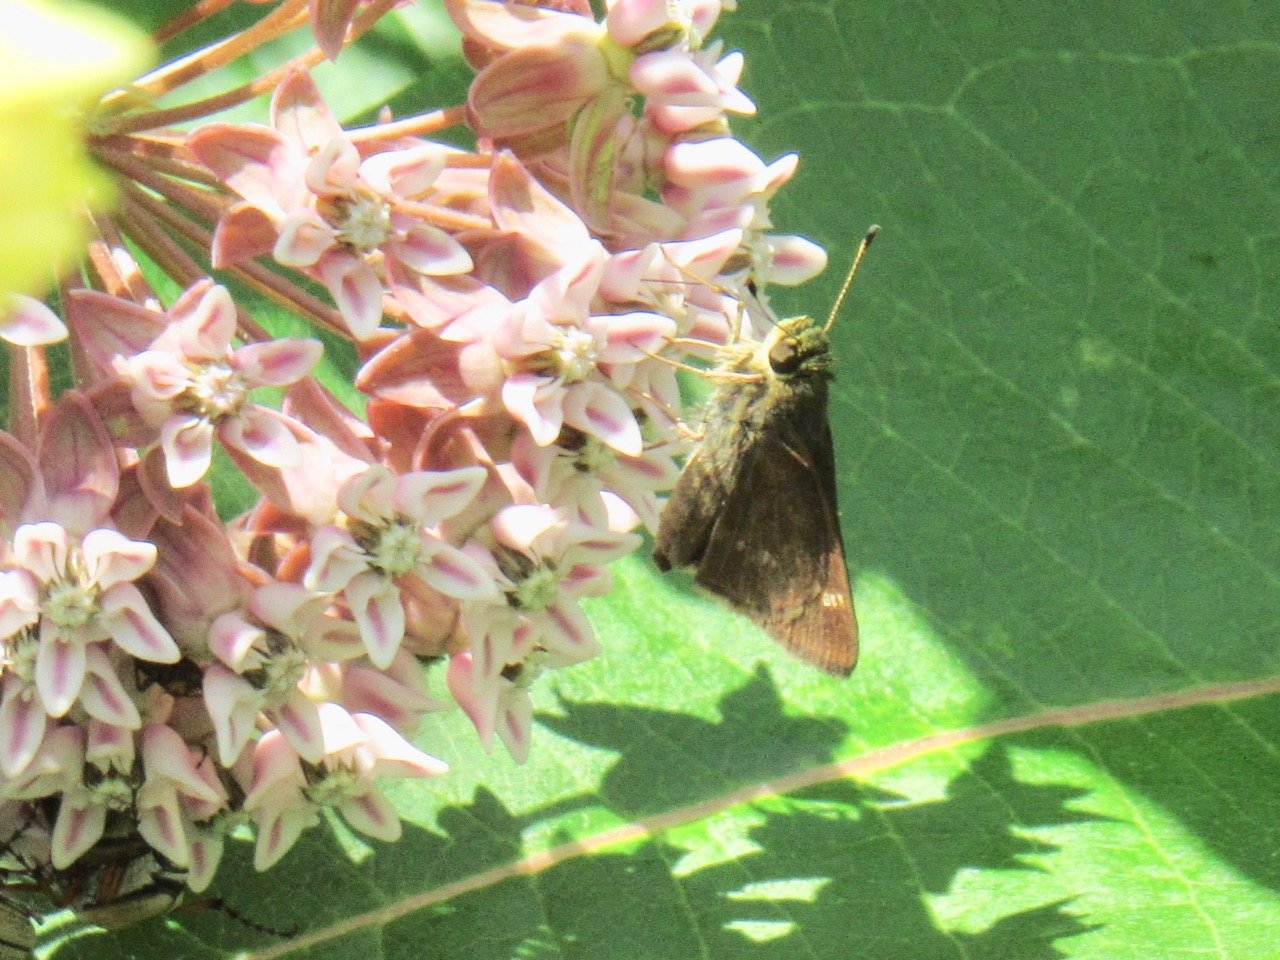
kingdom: Animalia
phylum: Arthropoda
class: Insecta
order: Lepidoptera
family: Hesperiidae
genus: Vernia
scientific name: Vernia verna
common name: Little Glassywing
